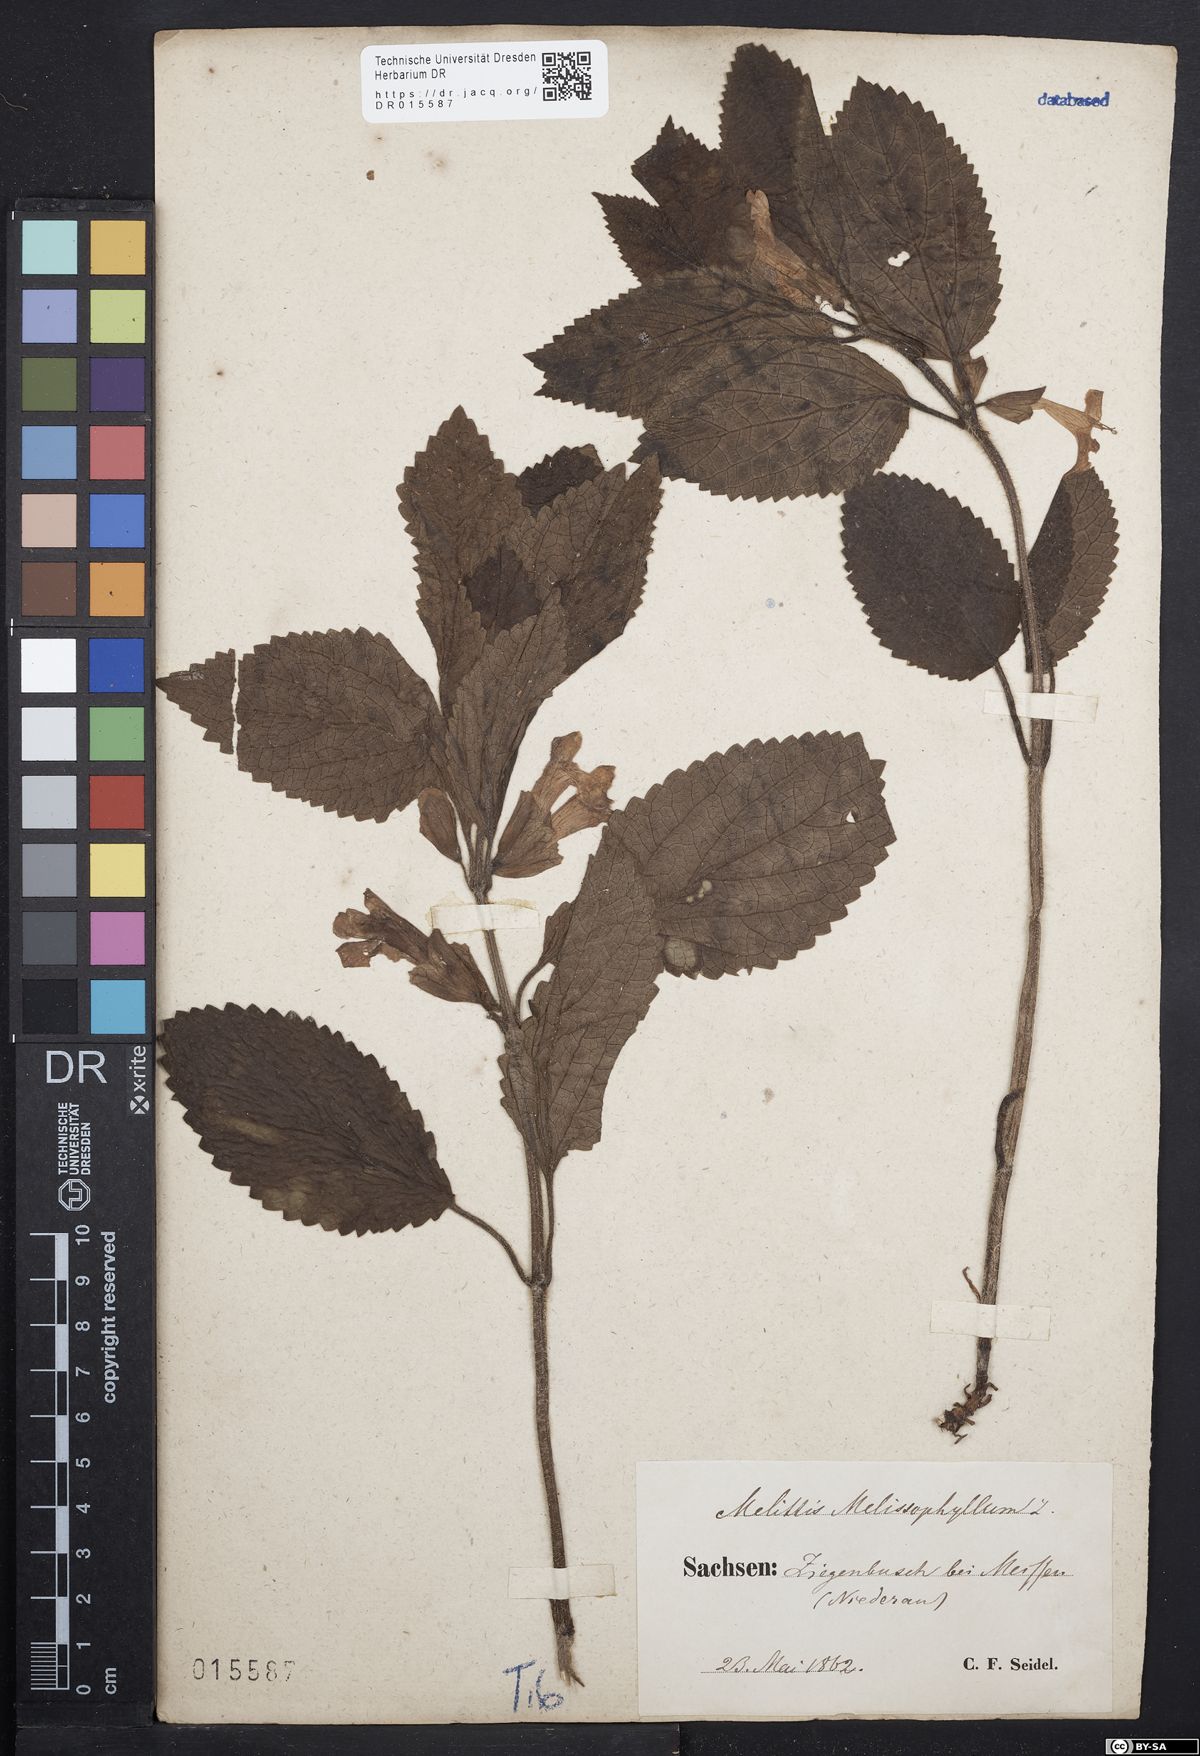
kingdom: Plantae
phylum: Tracheophyta
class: Magnoliopsida
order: Lamiales
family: Lamiaceae
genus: Melittis
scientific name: Melittis melissophyllum
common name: Bastard balm
